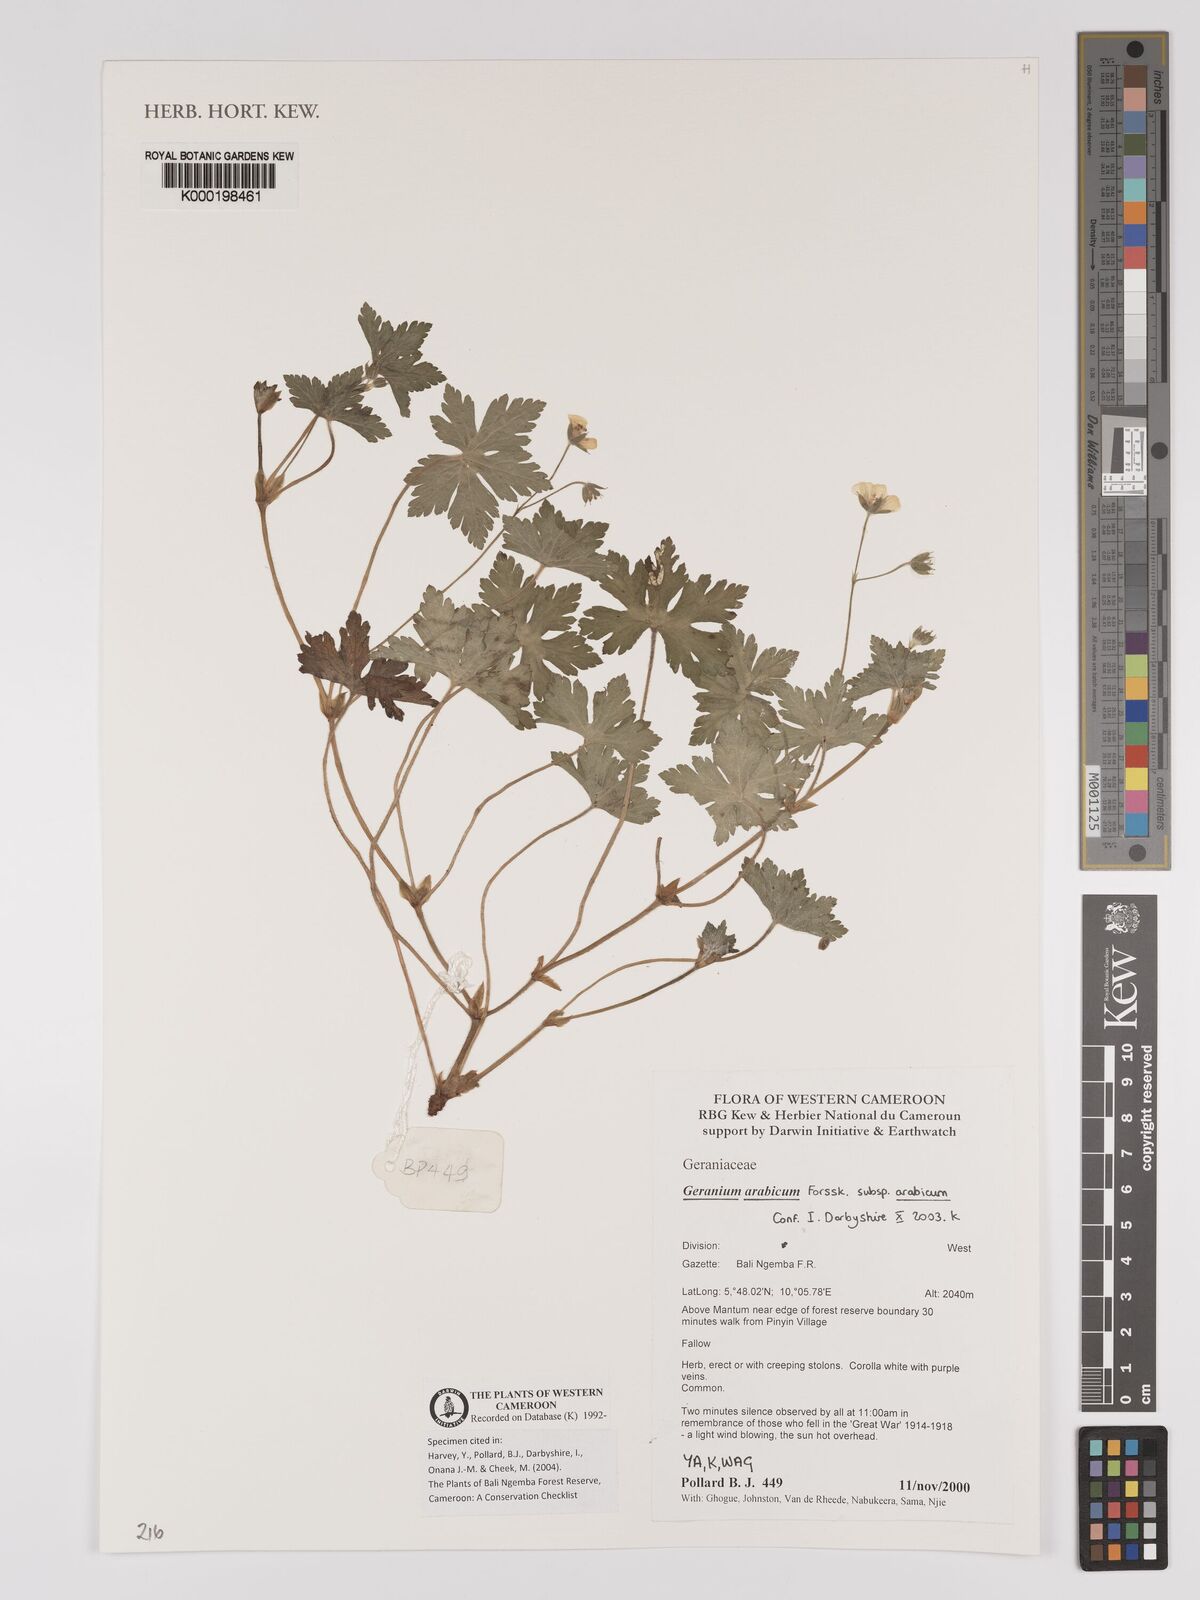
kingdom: Plantae
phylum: Tracheophyta
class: Magnoliopsida
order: Geraniales
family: Geraniaceae
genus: Geranium
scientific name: Geranium arabicum
